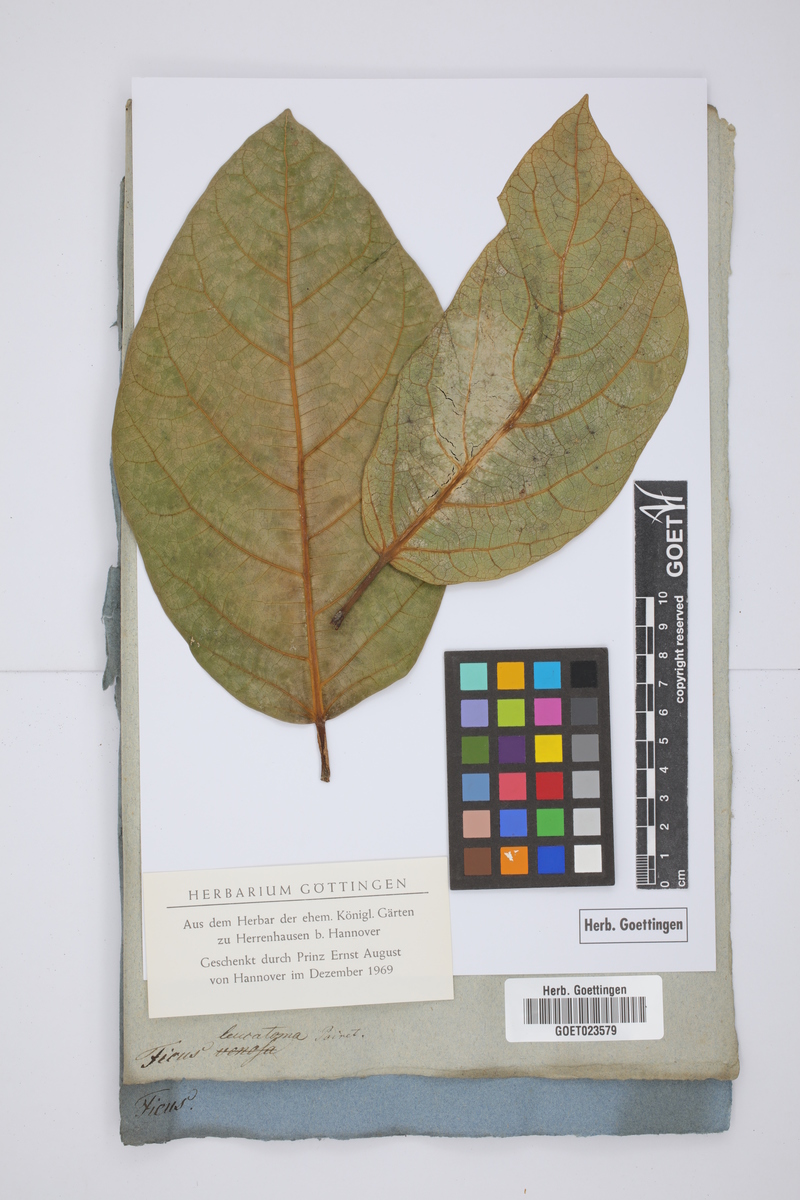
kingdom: Plantae
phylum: Tracheophyta
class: Magnoliopsida
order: Rosales
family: Moraceae
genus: Ficus
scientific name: Ficus septica
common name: Septic fig
